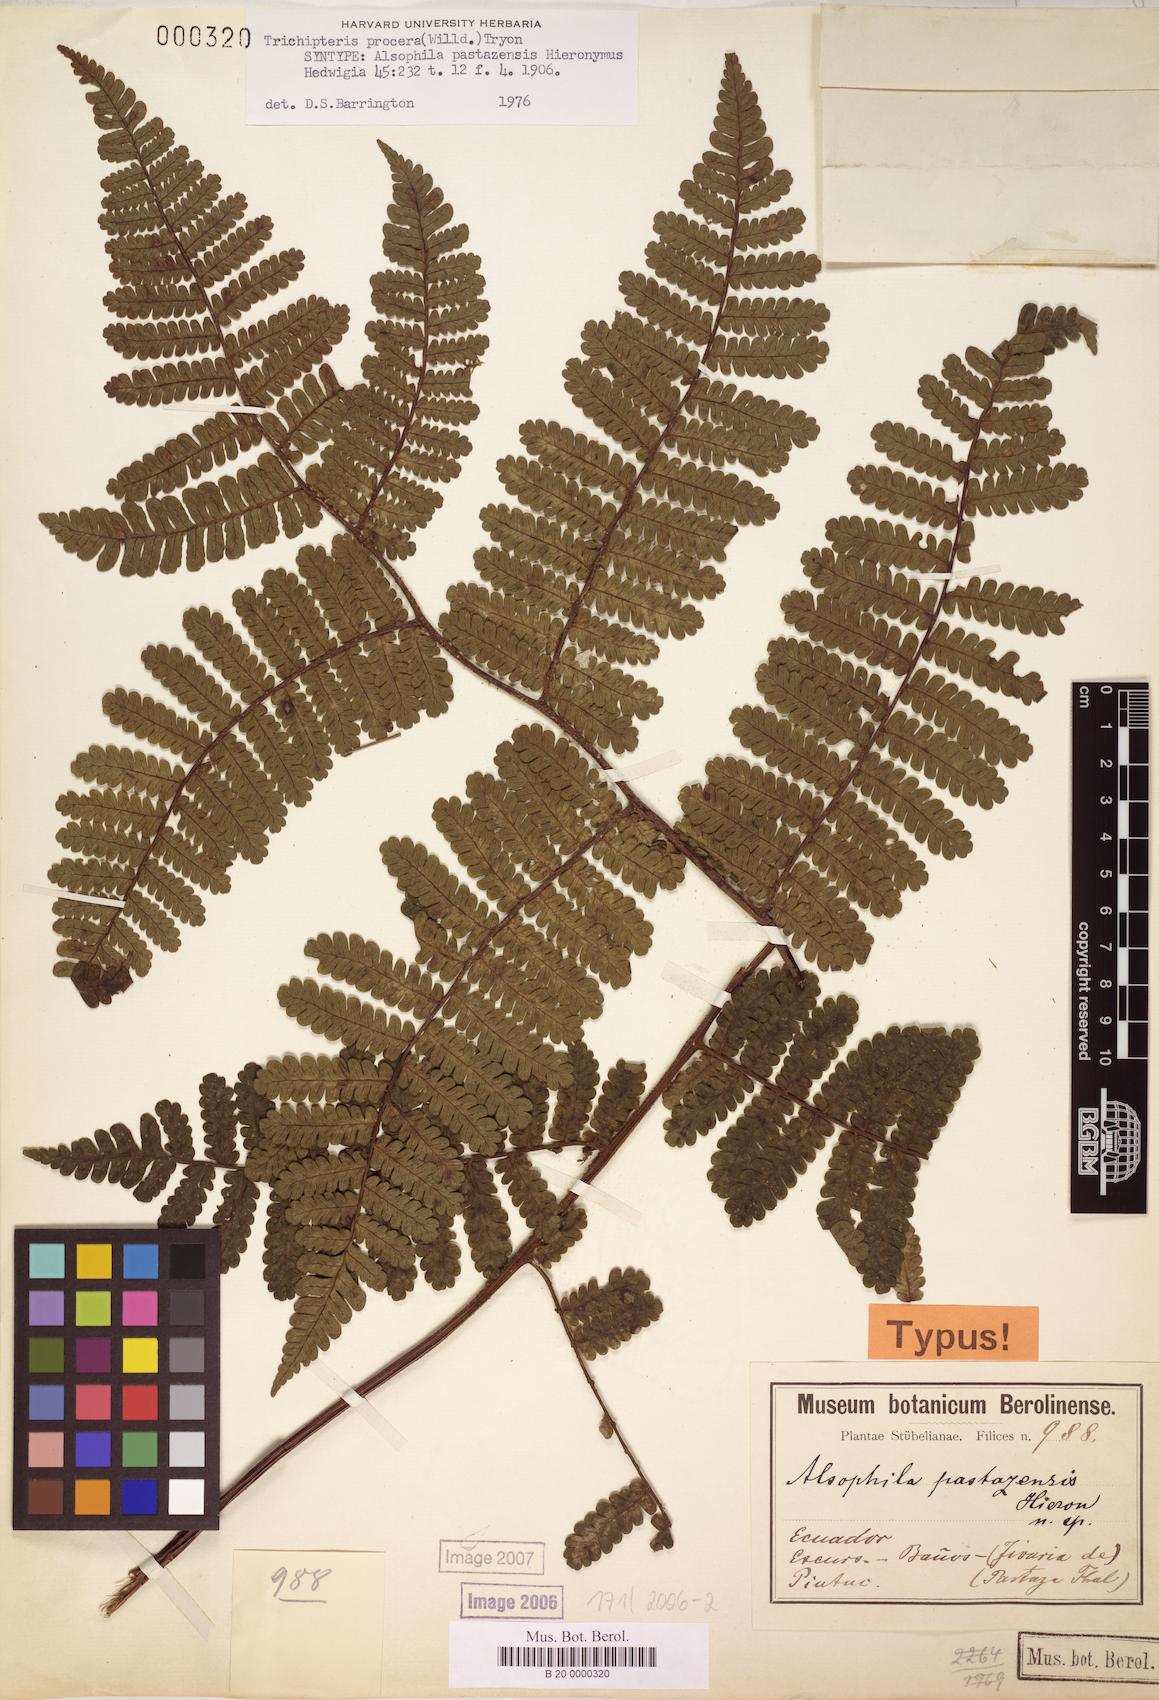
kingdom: Plantae
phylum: Tracheophyta
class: Polypodiopsida
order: Cyatheales
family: Cyatheaceae
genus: Cyathea
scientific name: Cyathea pungens
